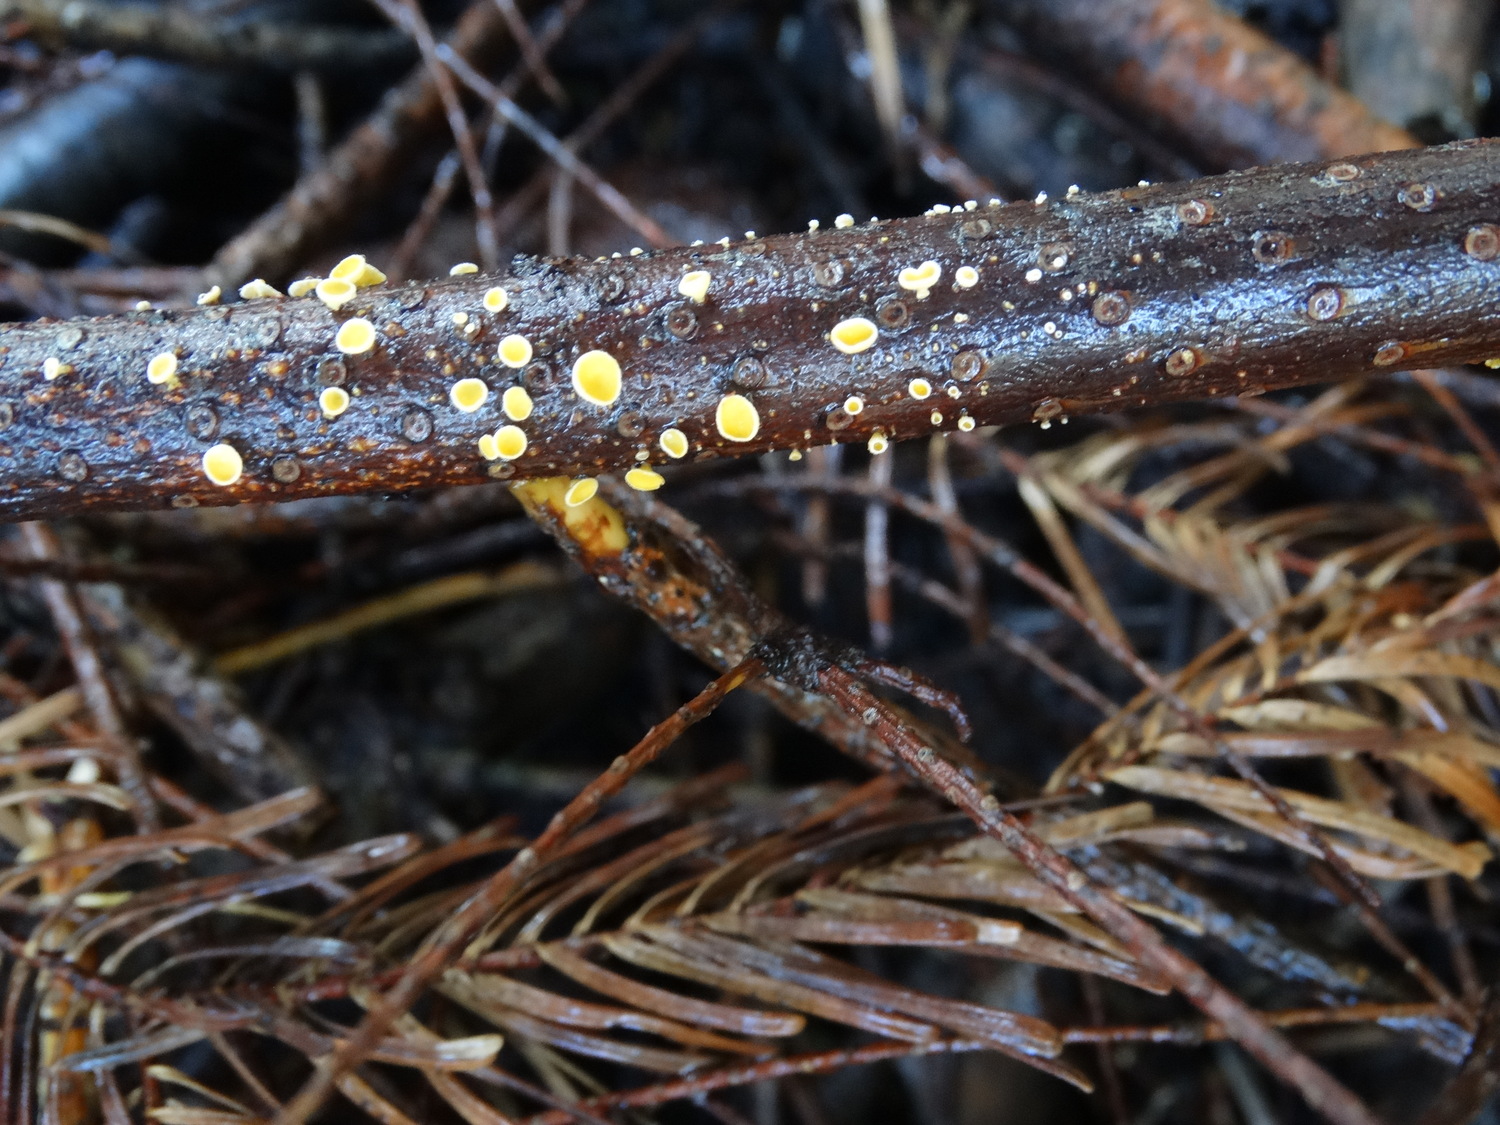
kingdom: Fungi
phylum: Ascomycota
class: Leotiomycetes
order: Helotiales
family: Lachnaceae
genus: Lachnellula
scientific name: Lachnellula calyciformis
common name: ædelgran-frynseskive
